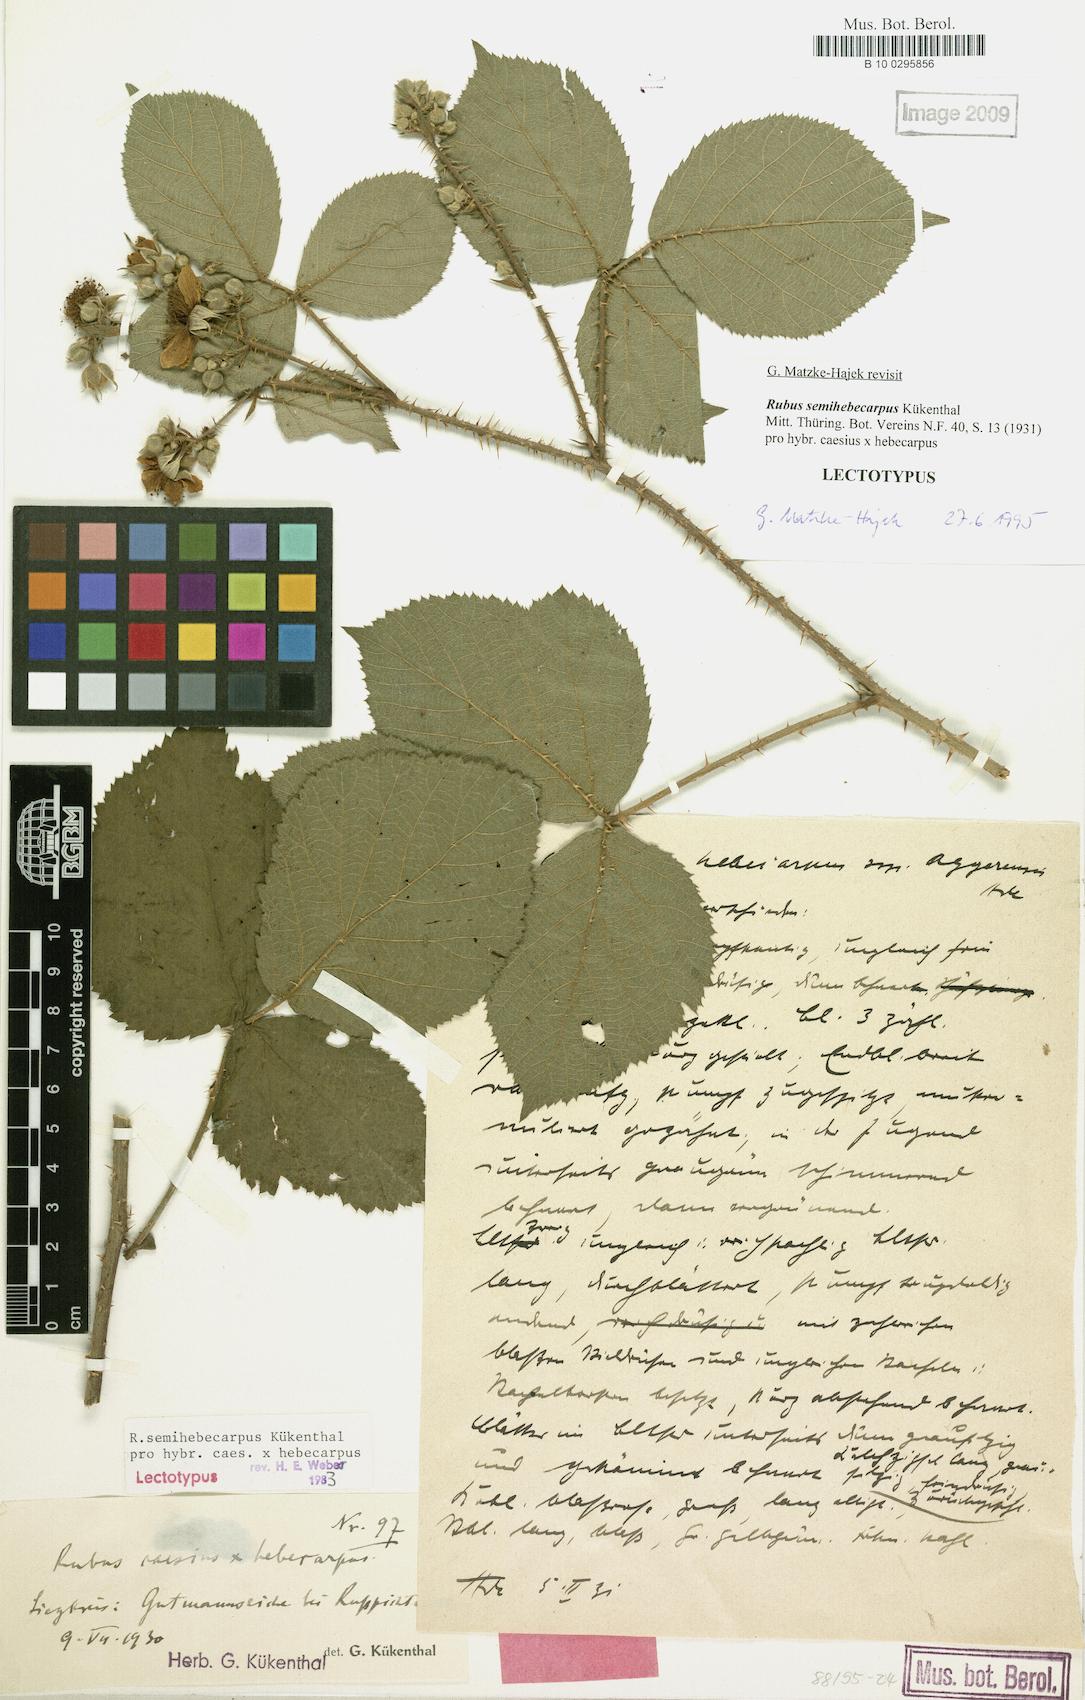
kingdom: Plantae
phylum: Tracheophyta
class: Magnoliopsida
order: Rosales
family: Rosaceae
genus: Rubus
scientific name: Rubus grandiflorus
